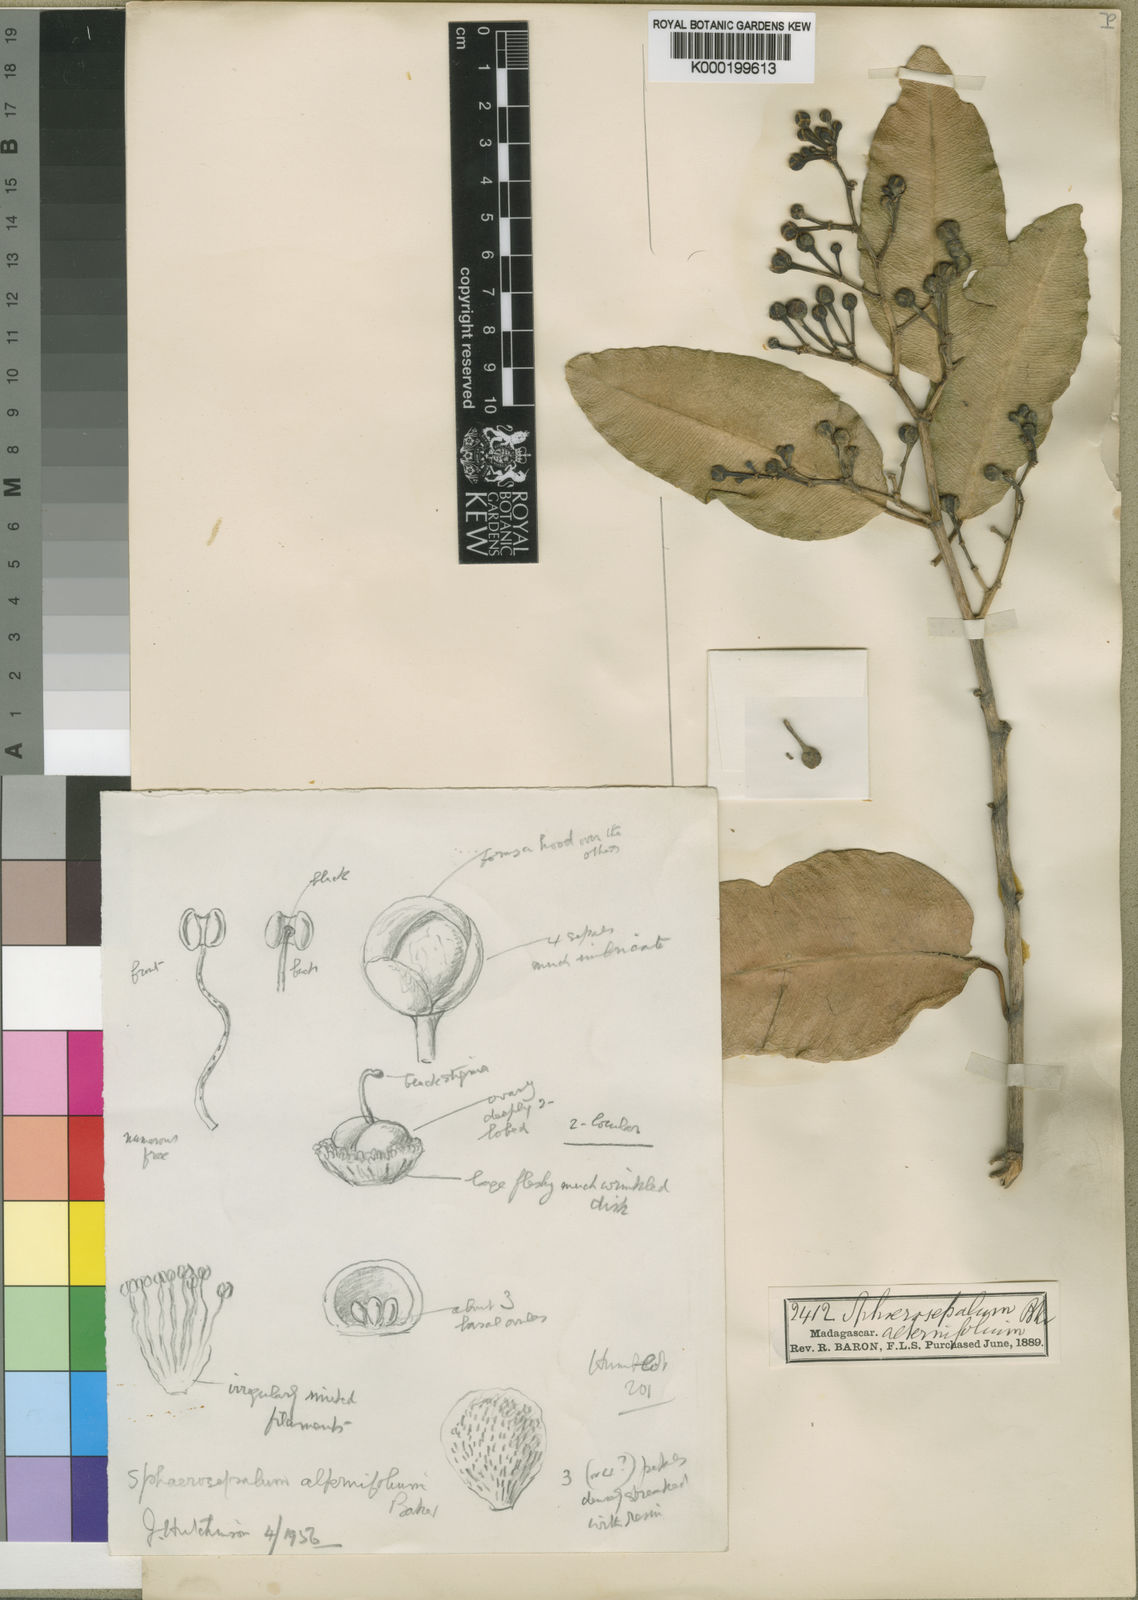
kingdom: Plantae
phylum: Tracheophyta
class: Magnoliopsida
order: Malvales
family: Sphaerosepalaceae
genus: Rhopalocarpus
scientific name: Rhopalocarpus alternifolius
